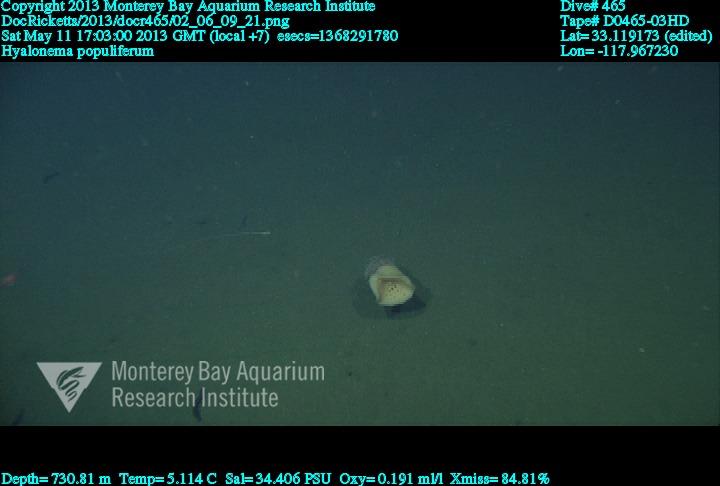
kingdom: Animalia
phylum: Porifera
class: Hexactinellida
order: Amphidiscosida
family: Hyalonematidae
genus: Hyalonema
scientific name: Hyalonema populiferum
